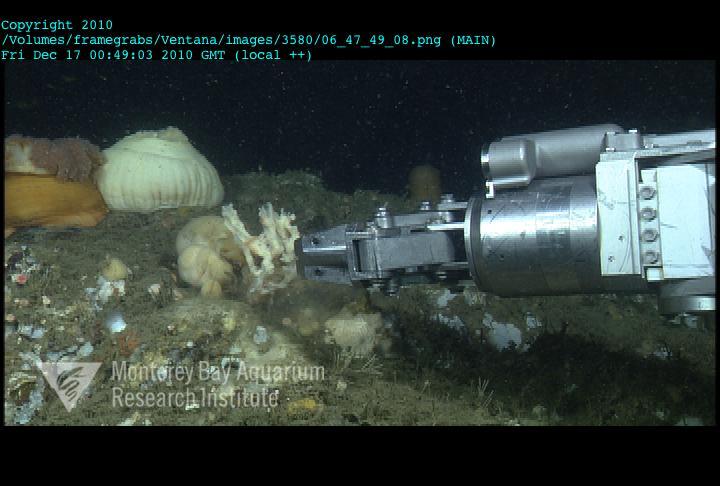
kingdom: Animalia
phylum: Porifera
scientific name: Porifera
